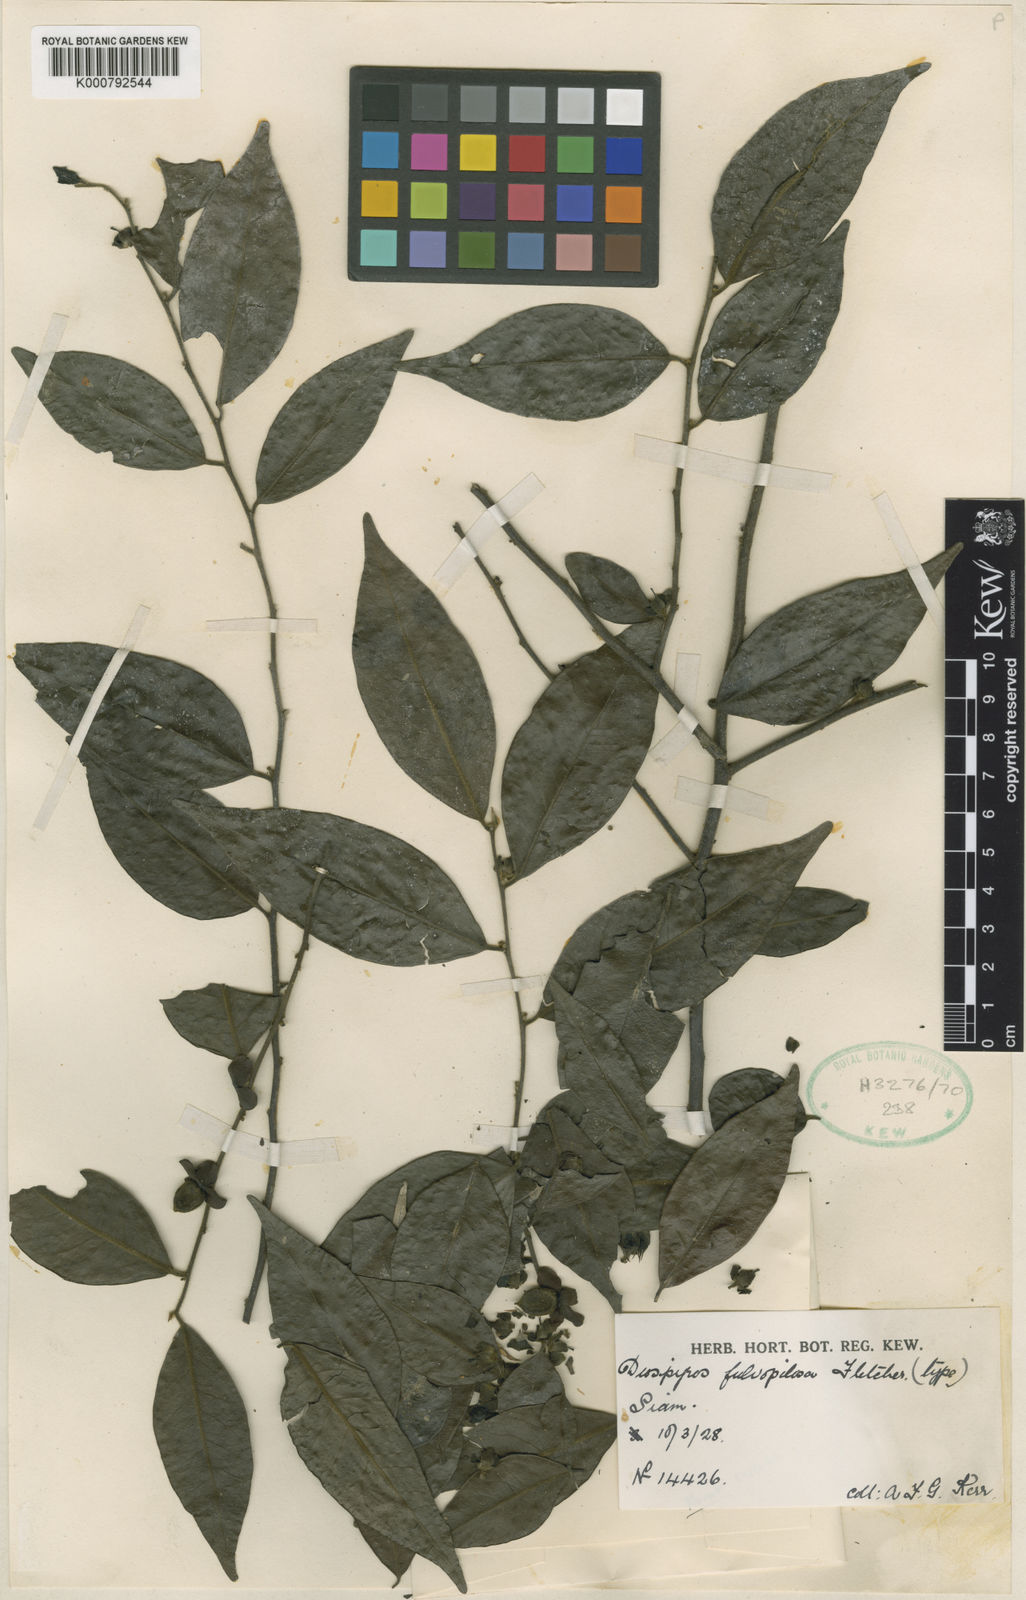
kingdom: Plantae
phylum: Tracheophyta
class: Magnoliopsida
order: Ericales
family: Ebenaceae
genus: Diospyros
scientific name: Diospyros kurzii
